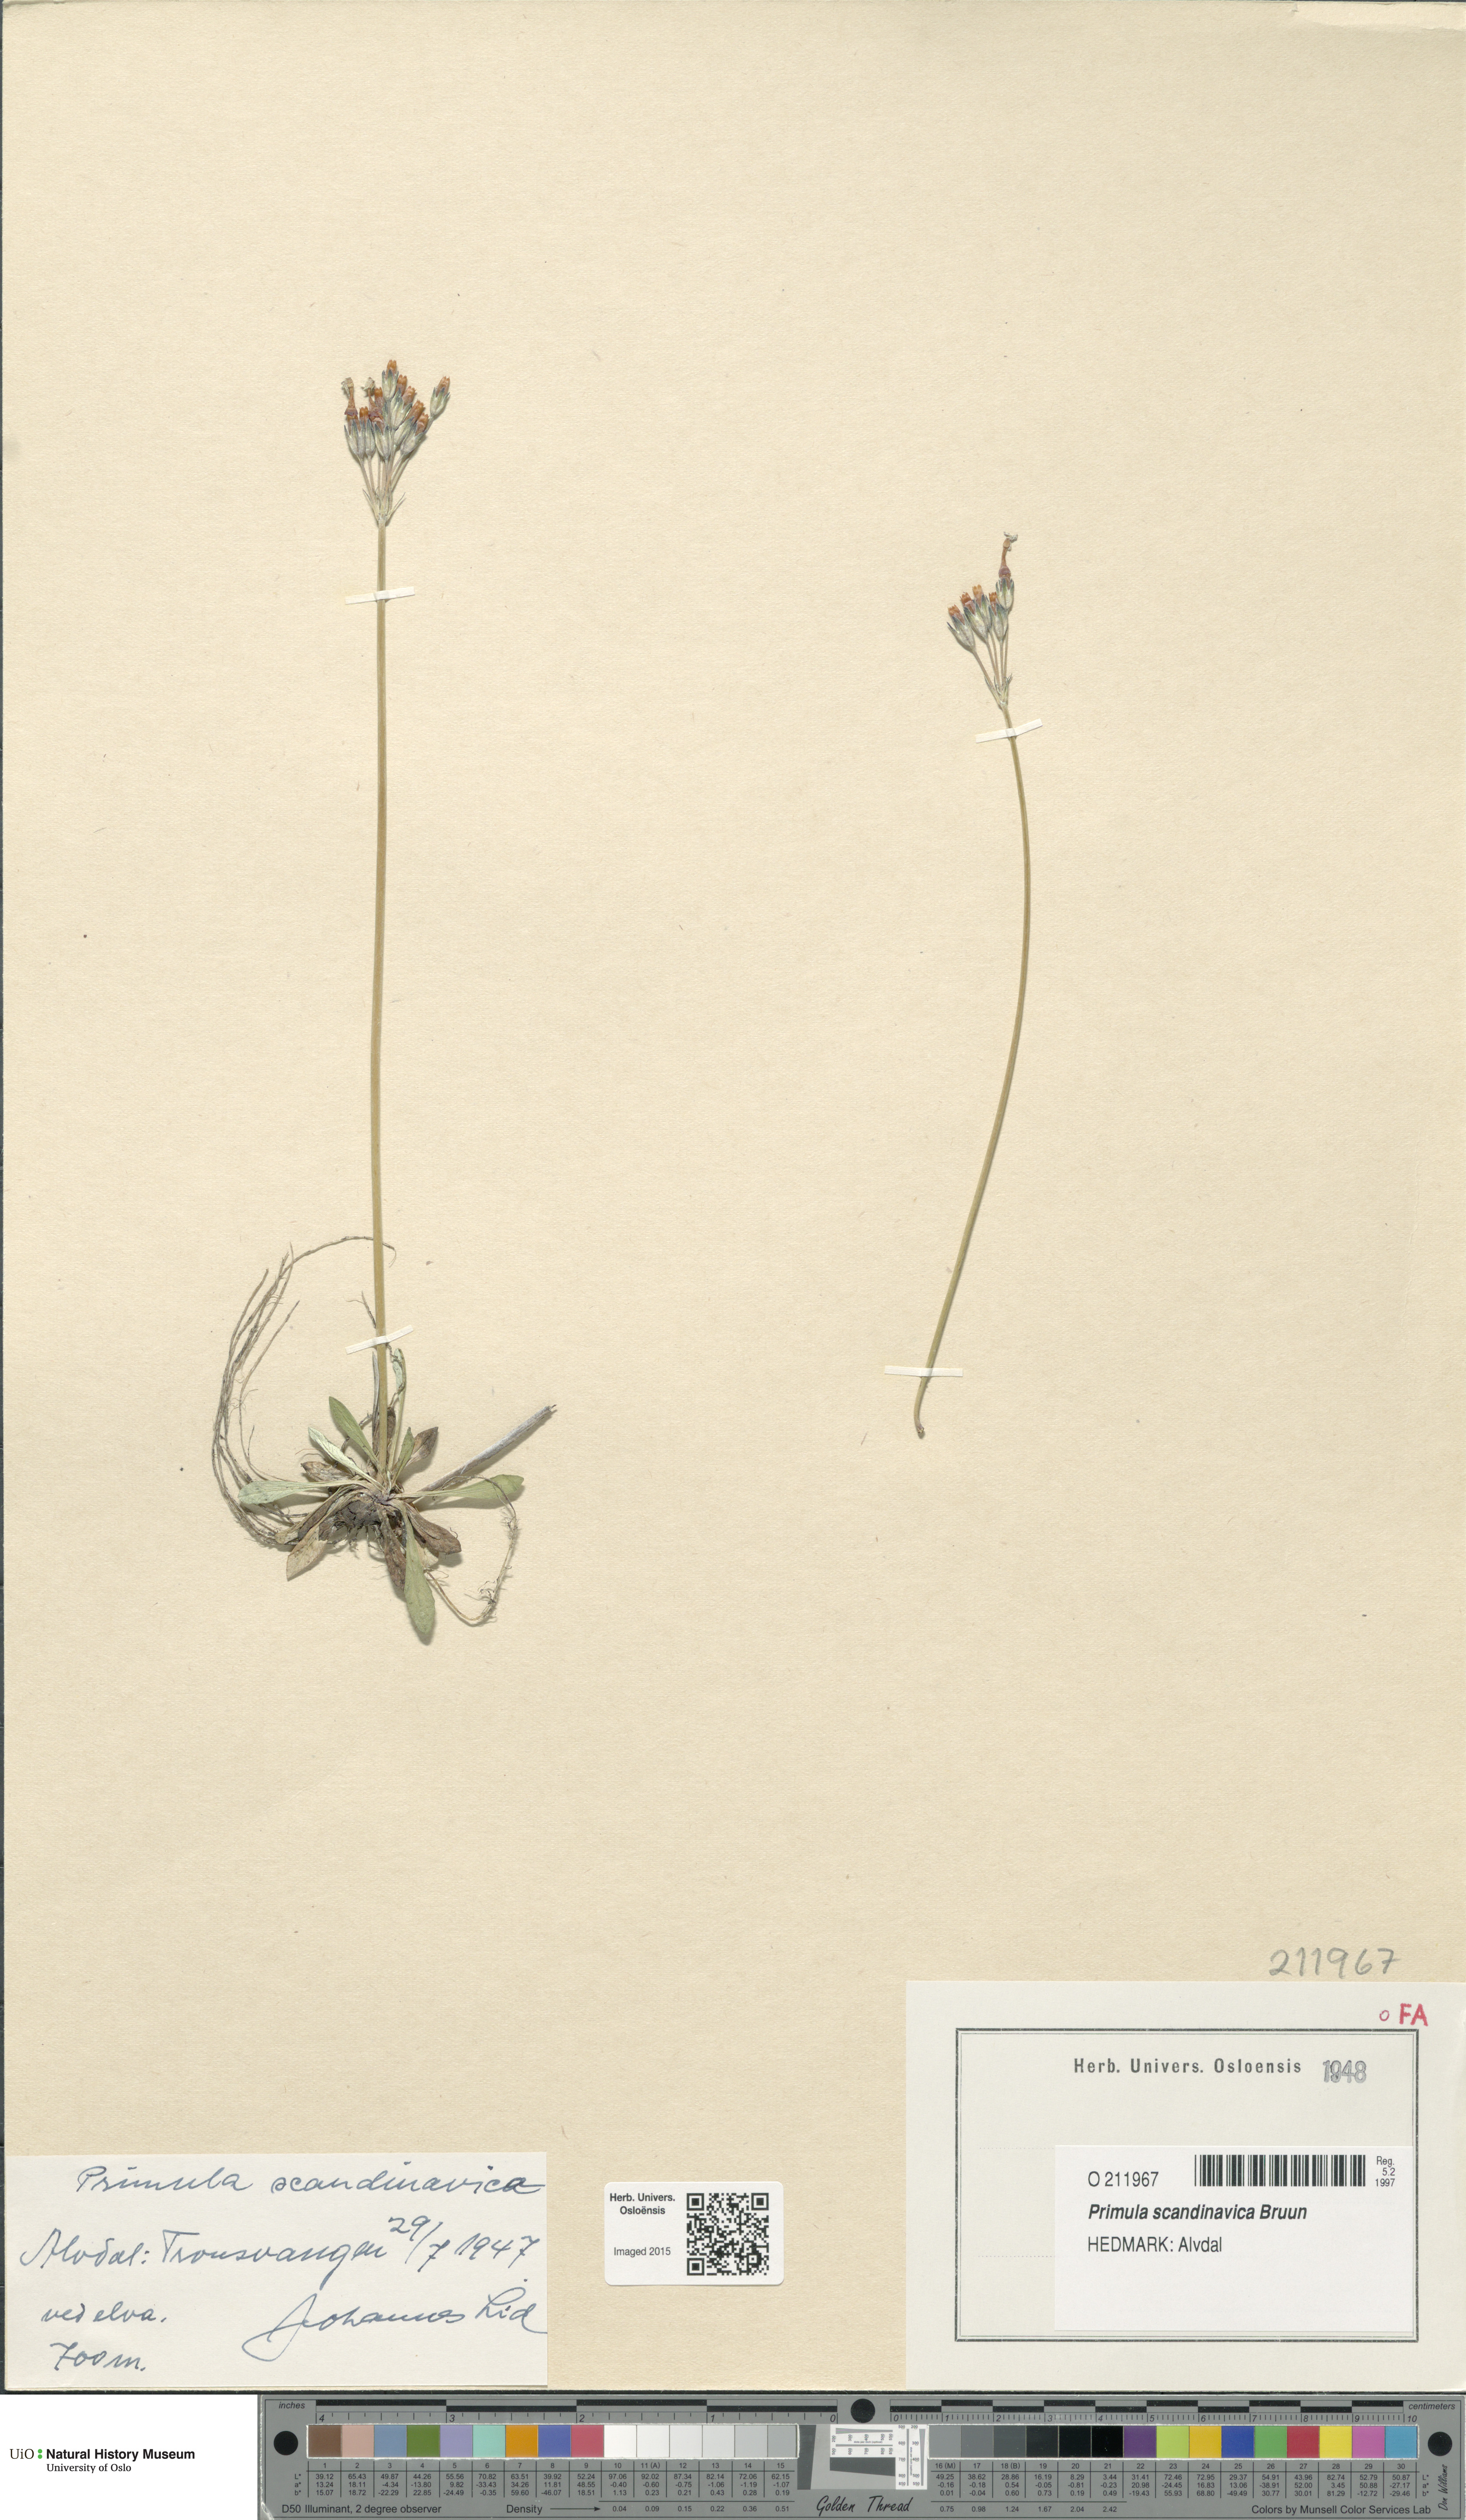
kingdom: Plantae
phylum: Tracheophyta
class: Magnoliopsida
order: Ericales
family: Primulaceae
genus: Primula
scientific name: Primula scandinavica
